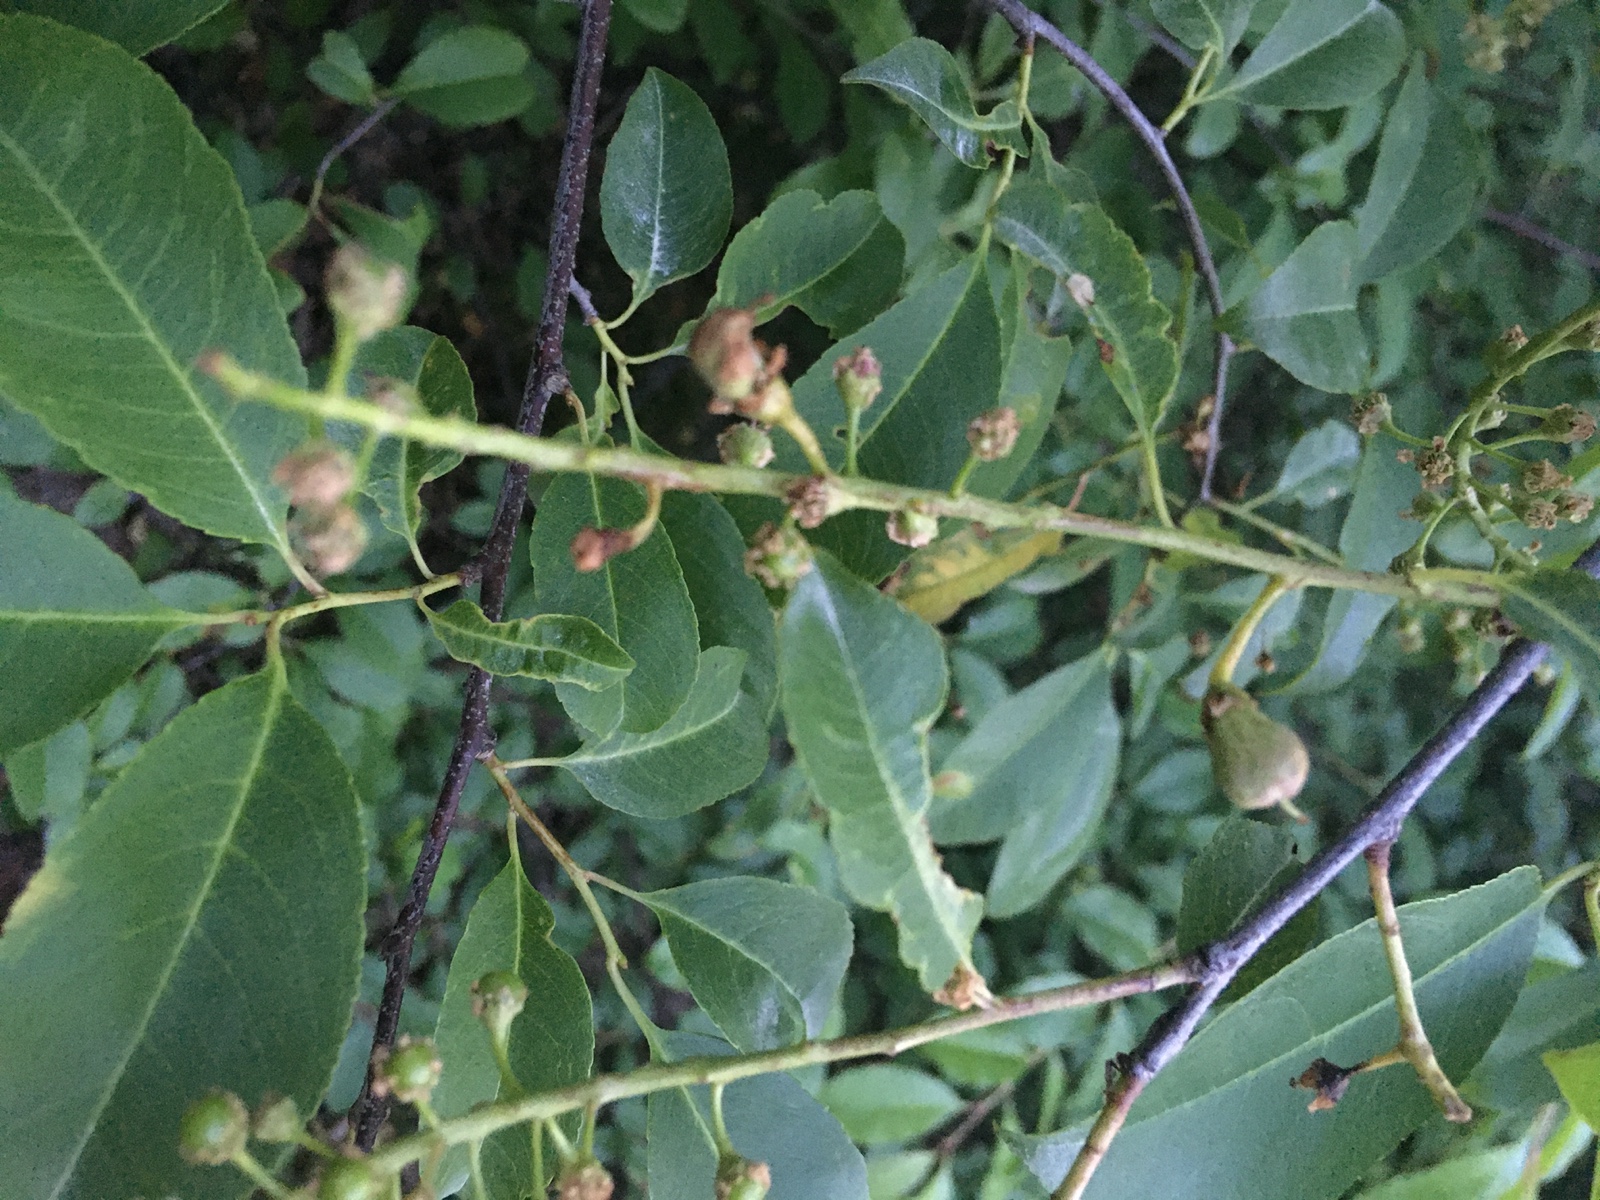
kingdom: Fungi
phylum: Ascomycota
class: Taphrinomycetes
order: Taphrinales
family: Taphrinaceae
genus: Taphrina
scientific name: Taphrina padi
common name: Bird cherry pocket
